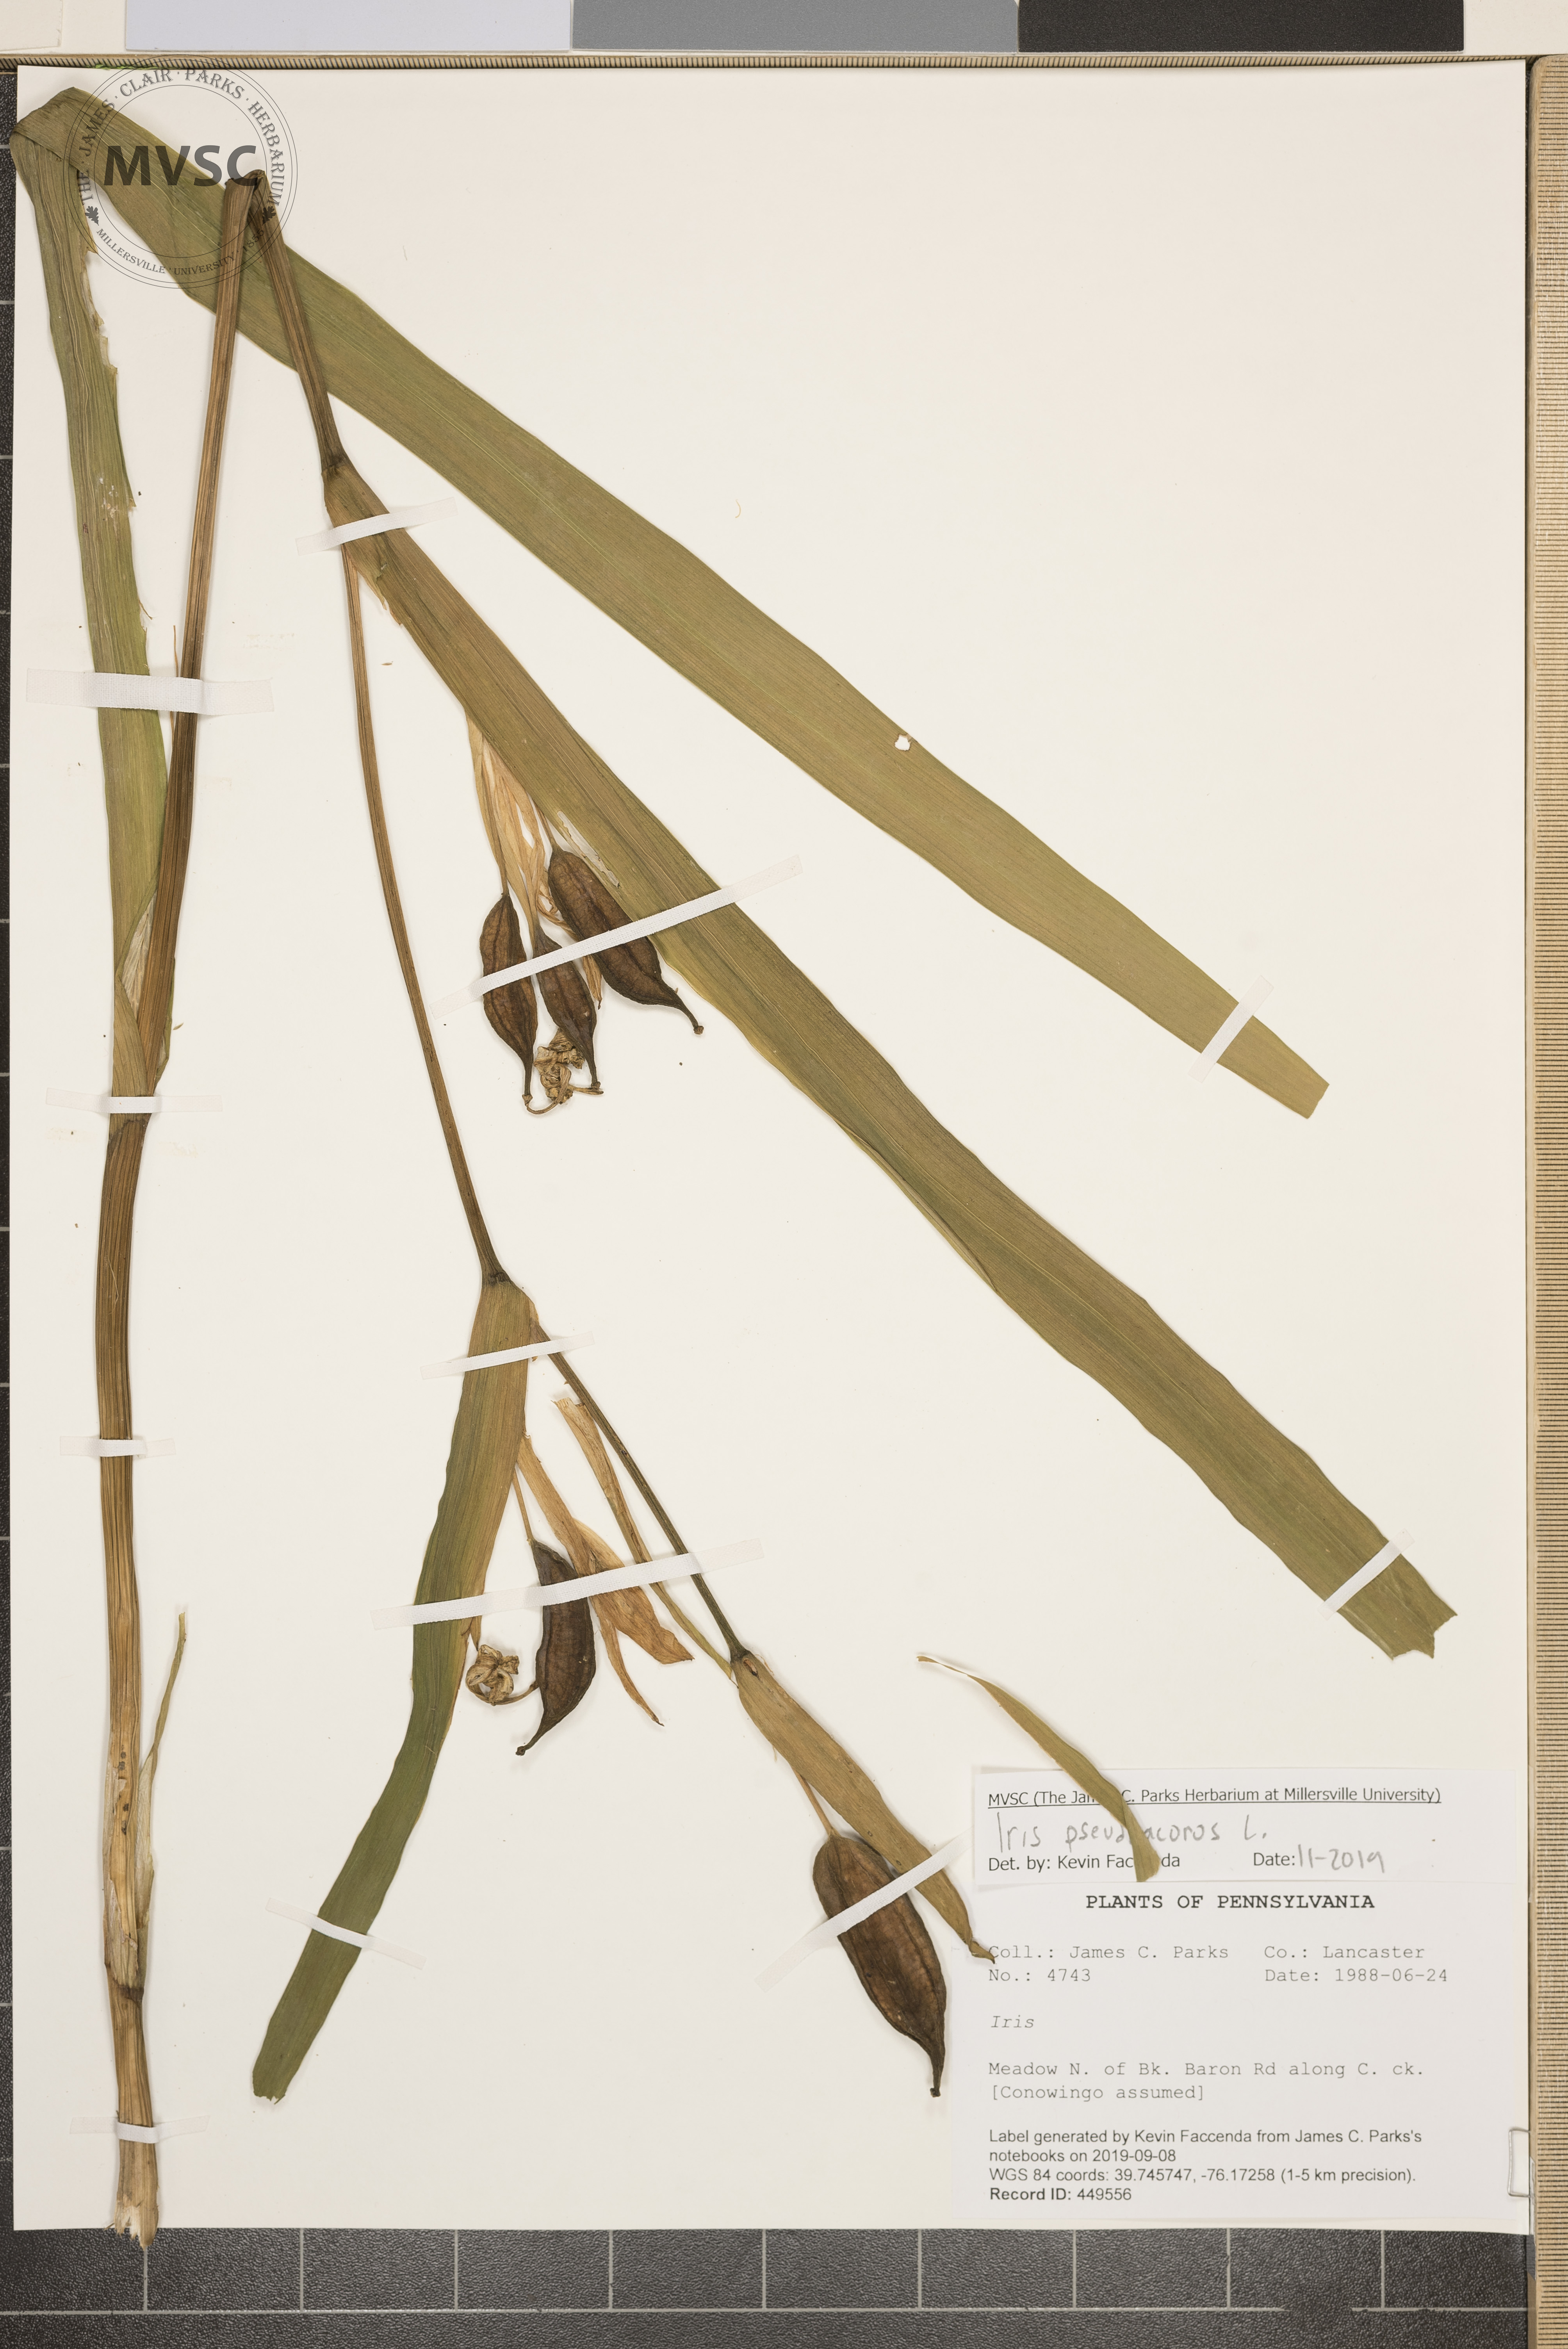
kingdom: Plantae
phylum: Tracheophyta
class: Liliopsida
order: Asparagales
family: Iridaceae
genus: Iris
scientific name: Iris pseudacorus
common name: Yellow flag
